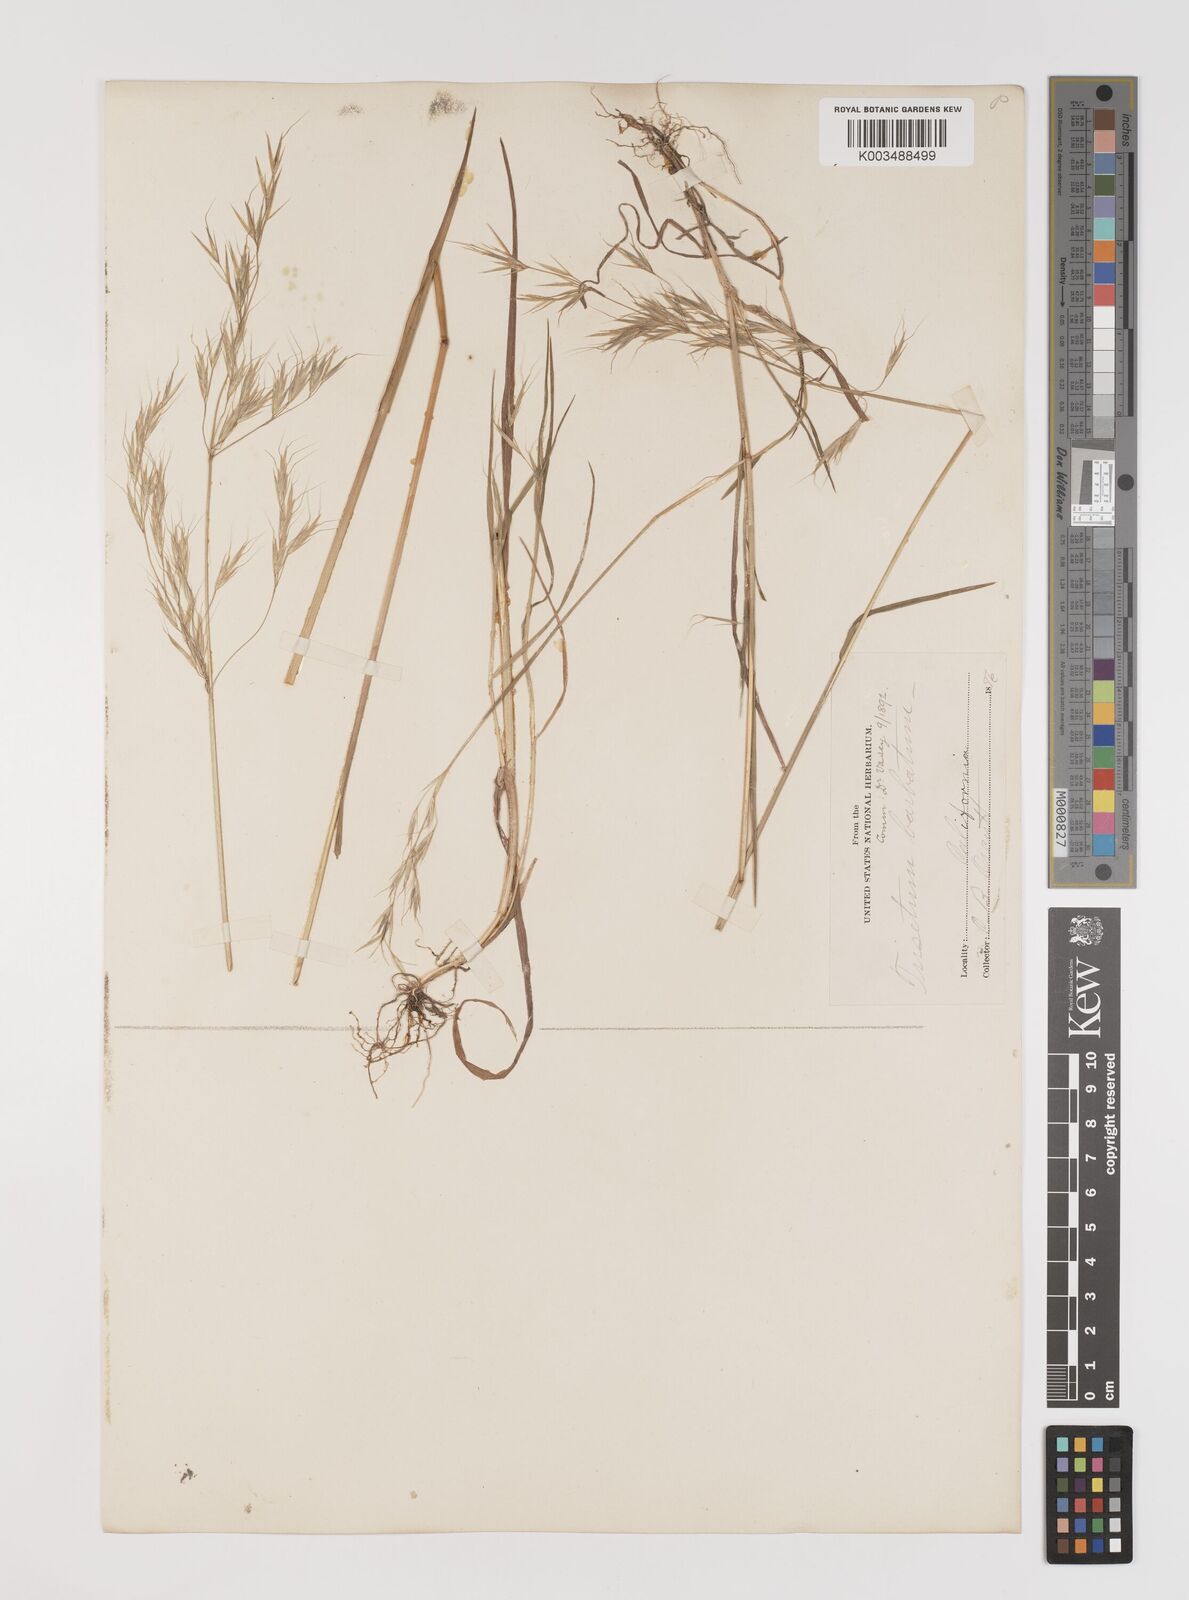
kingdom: Plantae
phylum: Tracheophyta
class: Liliopsida
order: Poales
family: Poaceae
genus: Bromus
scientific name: Bromus berteroanus
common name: Chilean chess
